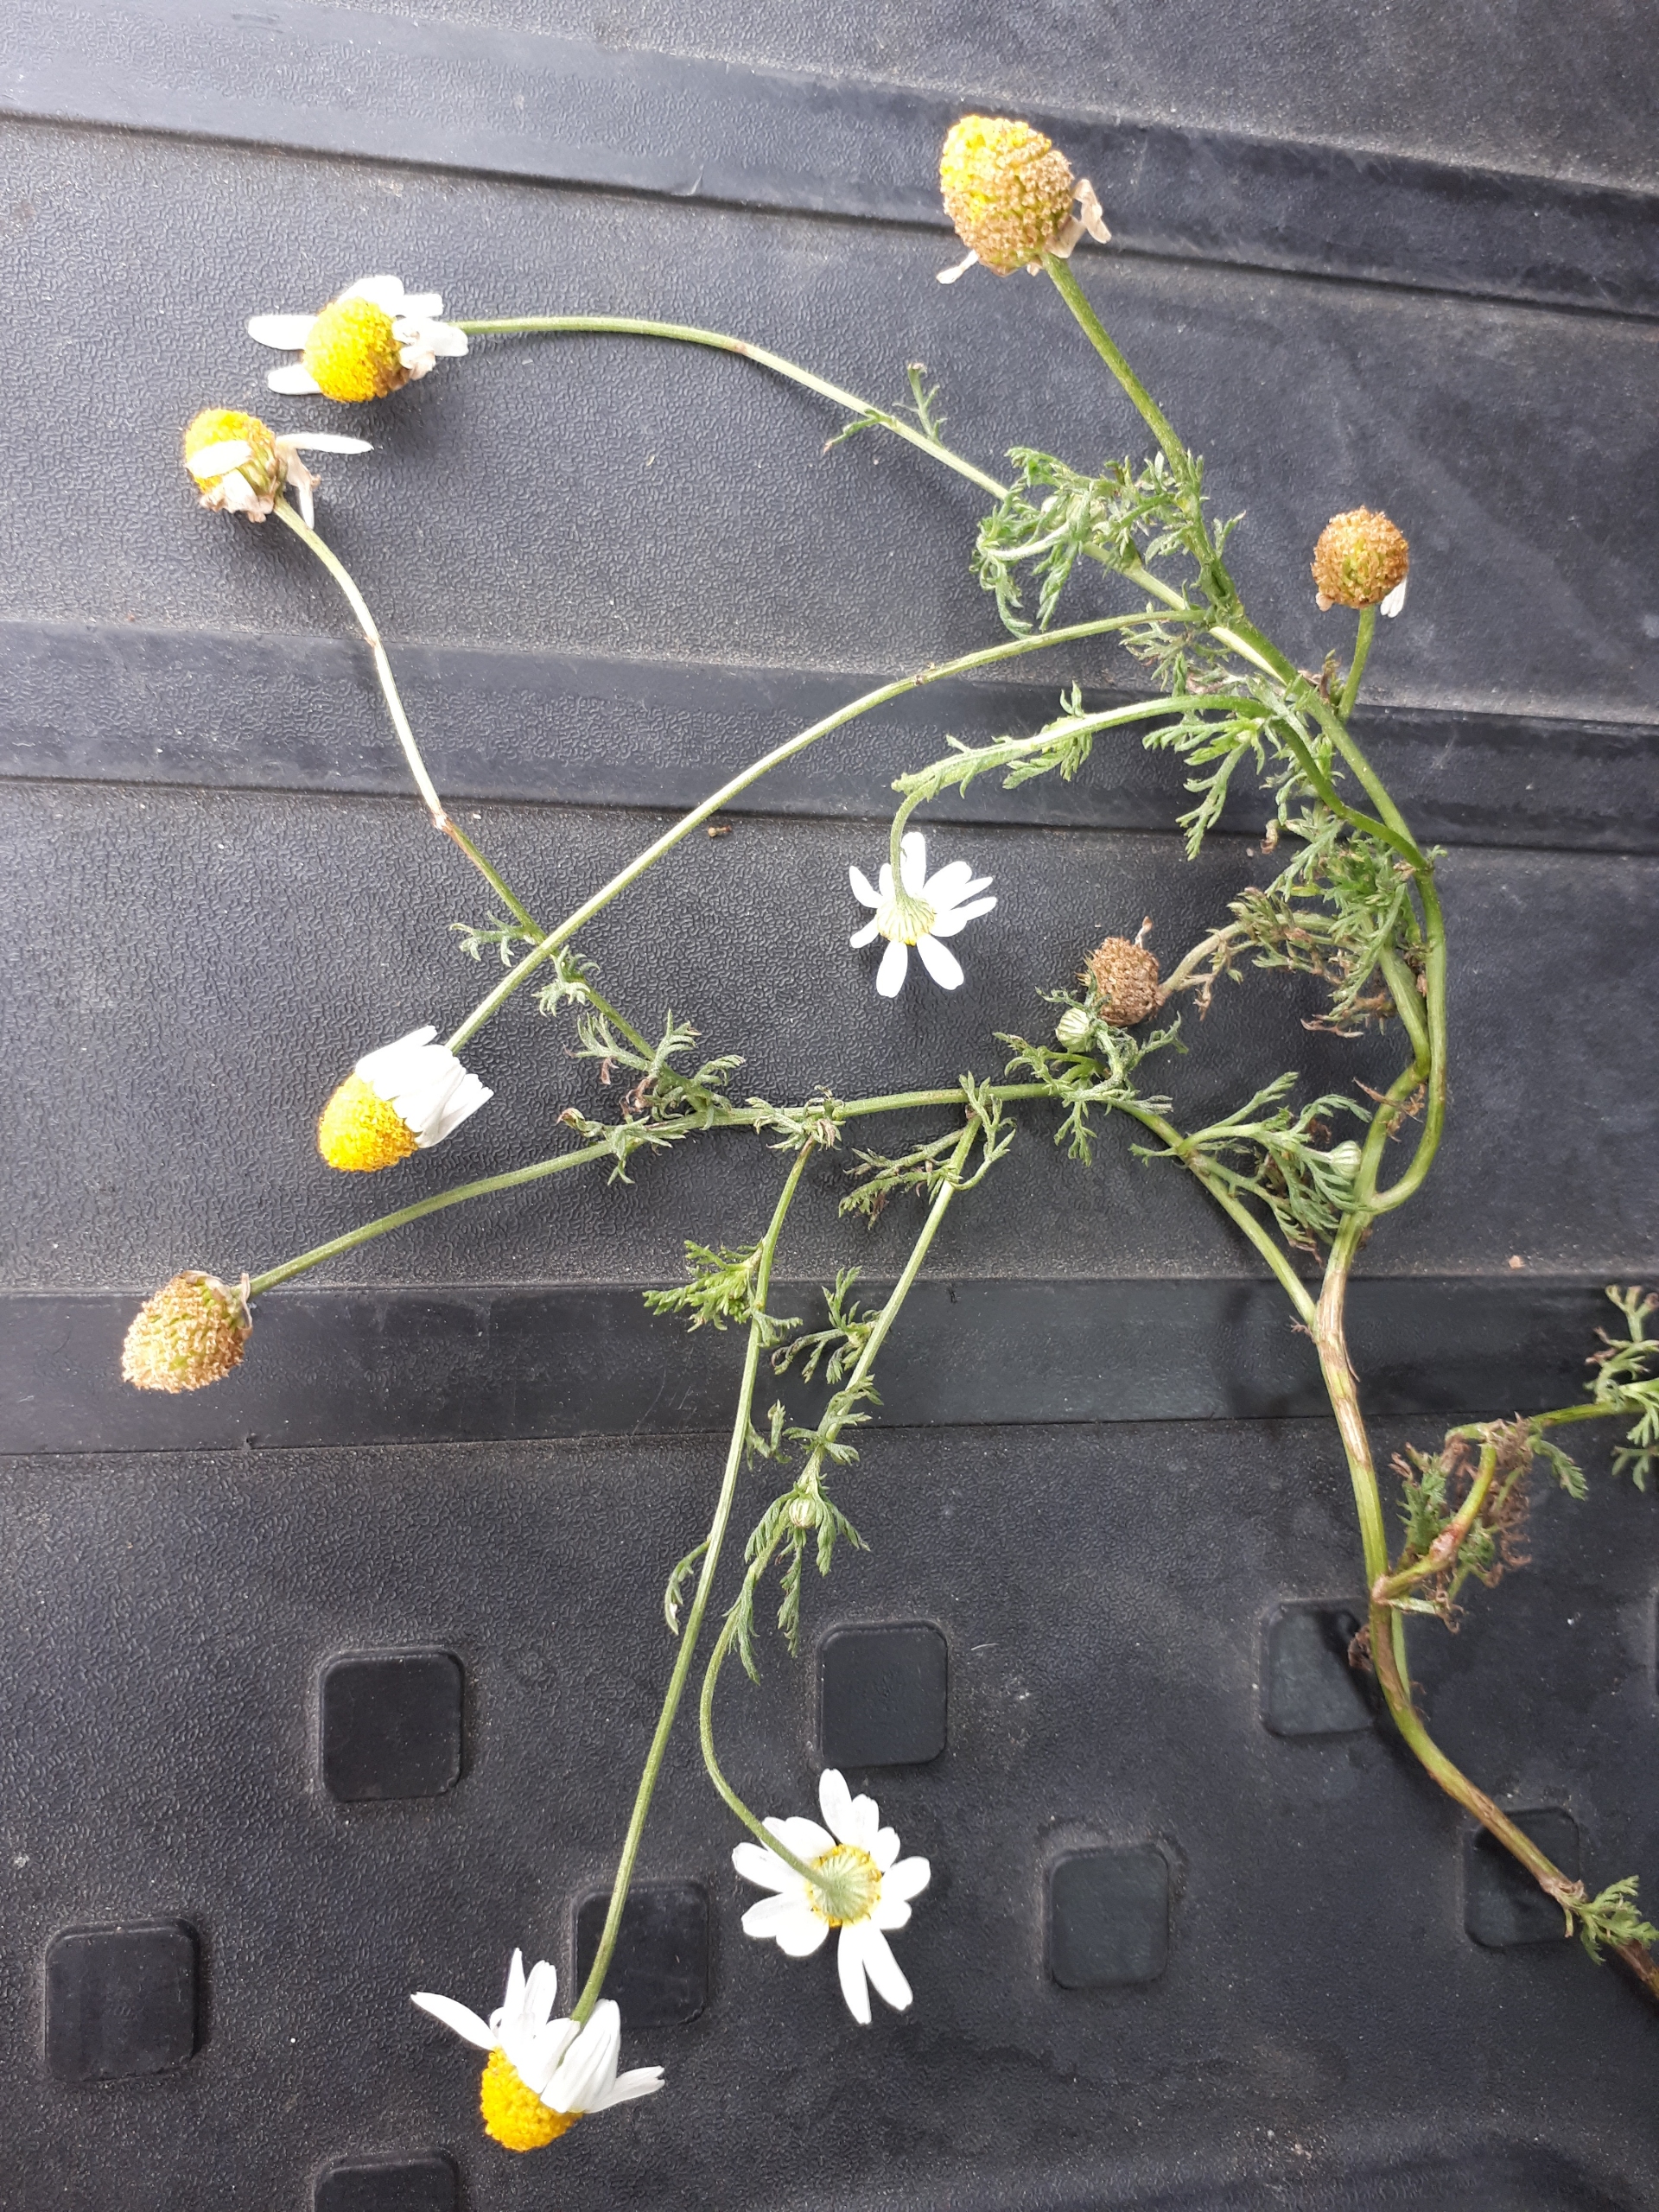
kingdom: Plantae
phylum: Tracheophyta
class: Magnoliopsida
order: Asterales
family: Asteraceae
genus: Anthemis
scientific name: Anthemis cotula
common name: Stinkende gåseurt
